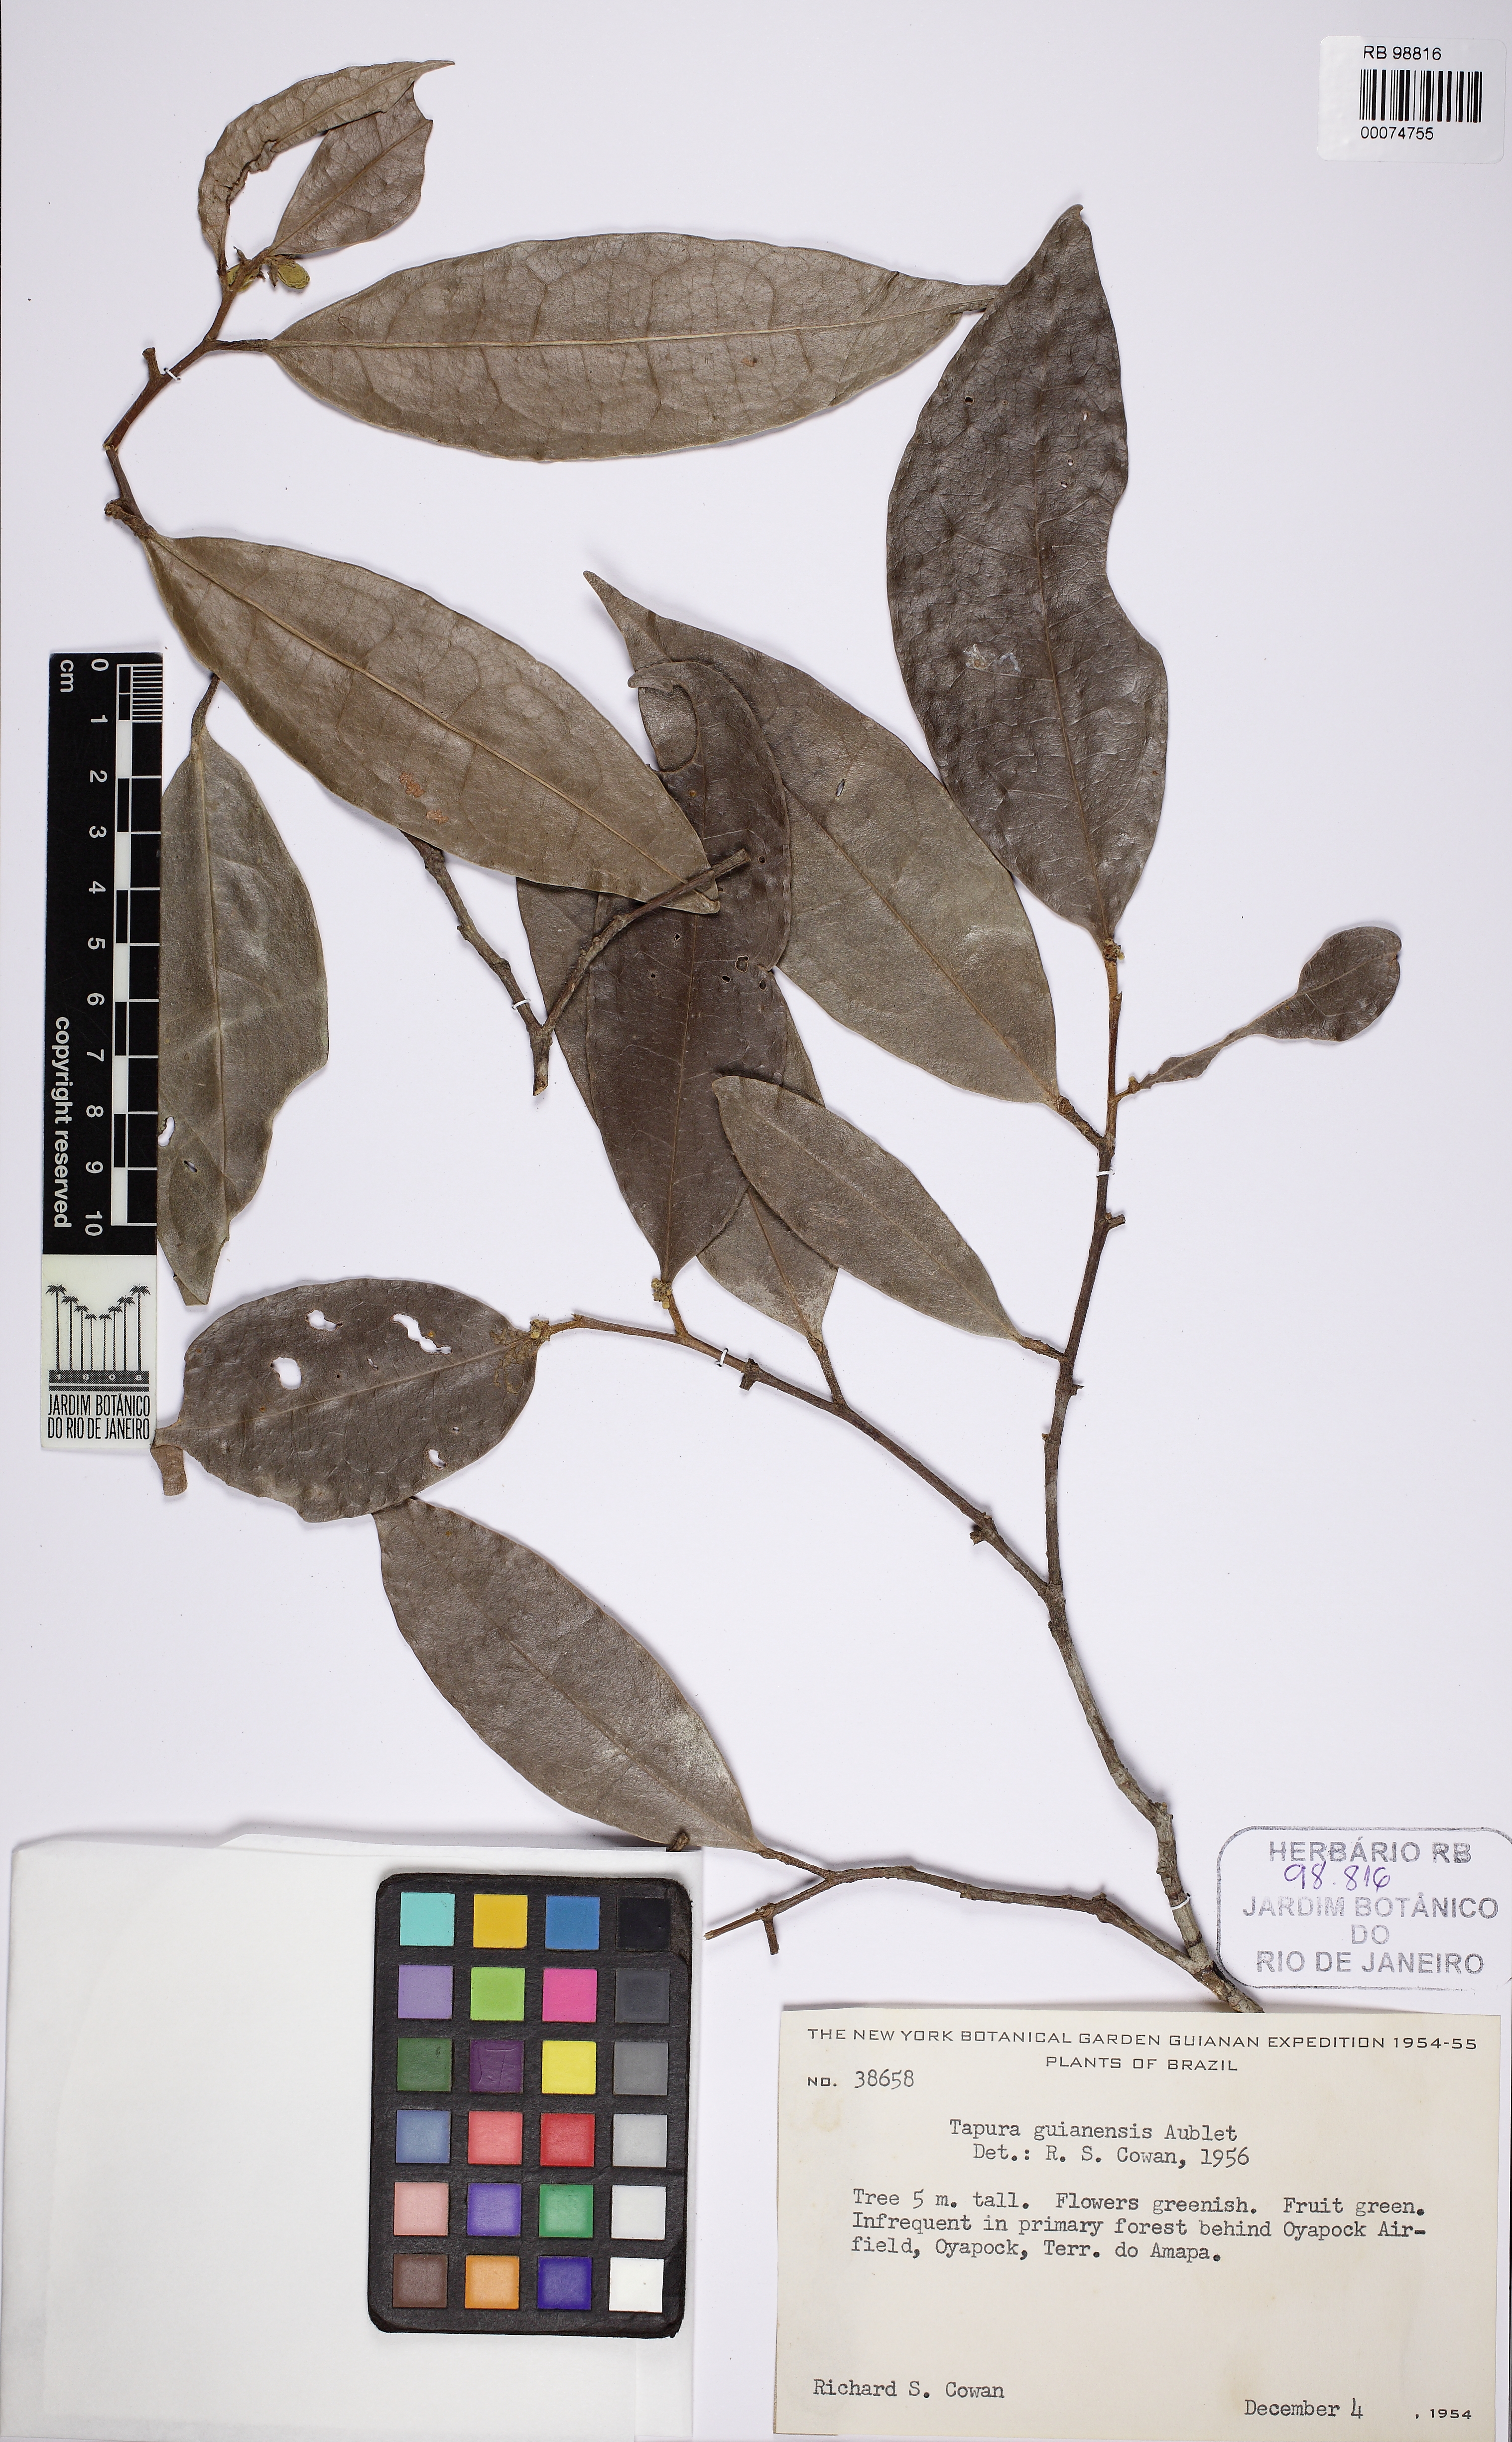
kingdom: Plantae
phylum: Tracheophyta
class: Magnoliopsida
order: Malpighiales
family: Dichapetalaceae
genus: Tapura
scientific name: Tapura guianensis
